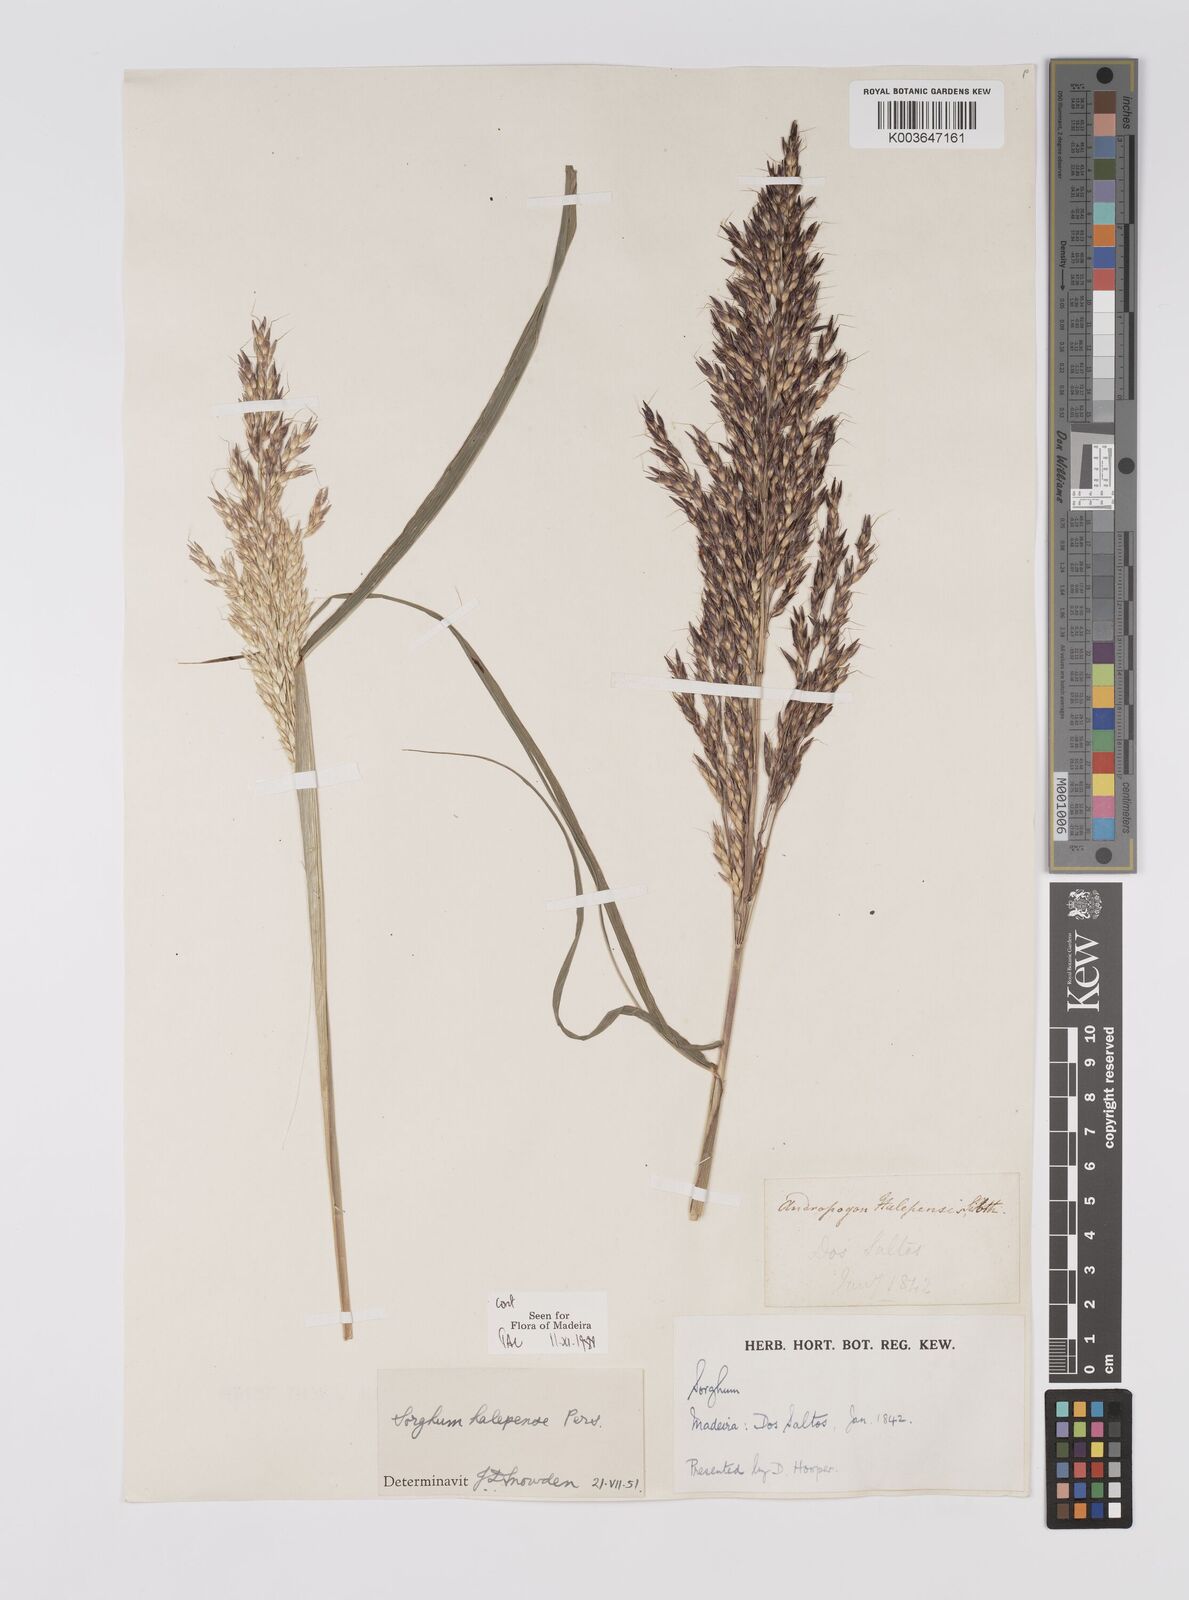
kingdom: Plantae
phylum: Tracheophyta
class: Liliopsida
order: Poales
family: Poaceae
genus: Sorghum
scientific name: Sorghum halepense
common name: Johnson-grass
